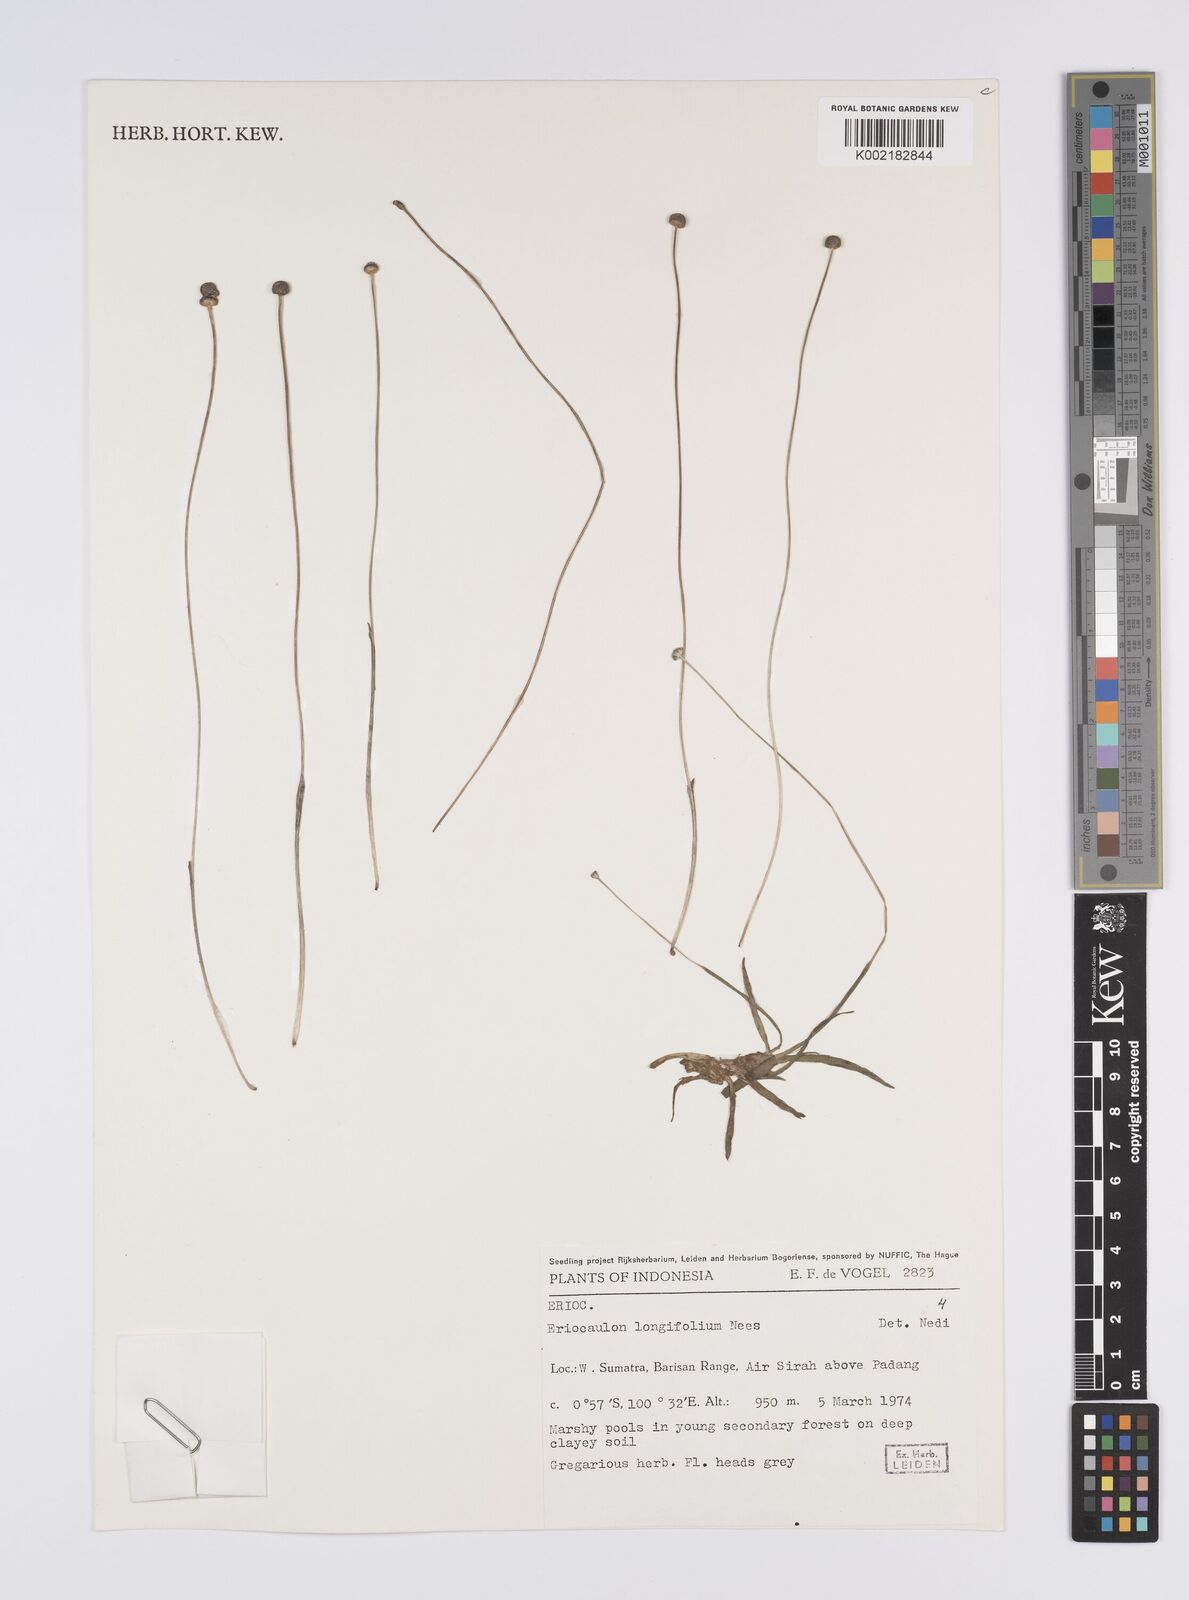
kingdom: Plantae
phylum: Tracheophyta
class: Liliopsida
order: Poales
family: Eriocaulaceae
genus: Eriocaulon
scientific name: Eriocaulon willdenovianum
